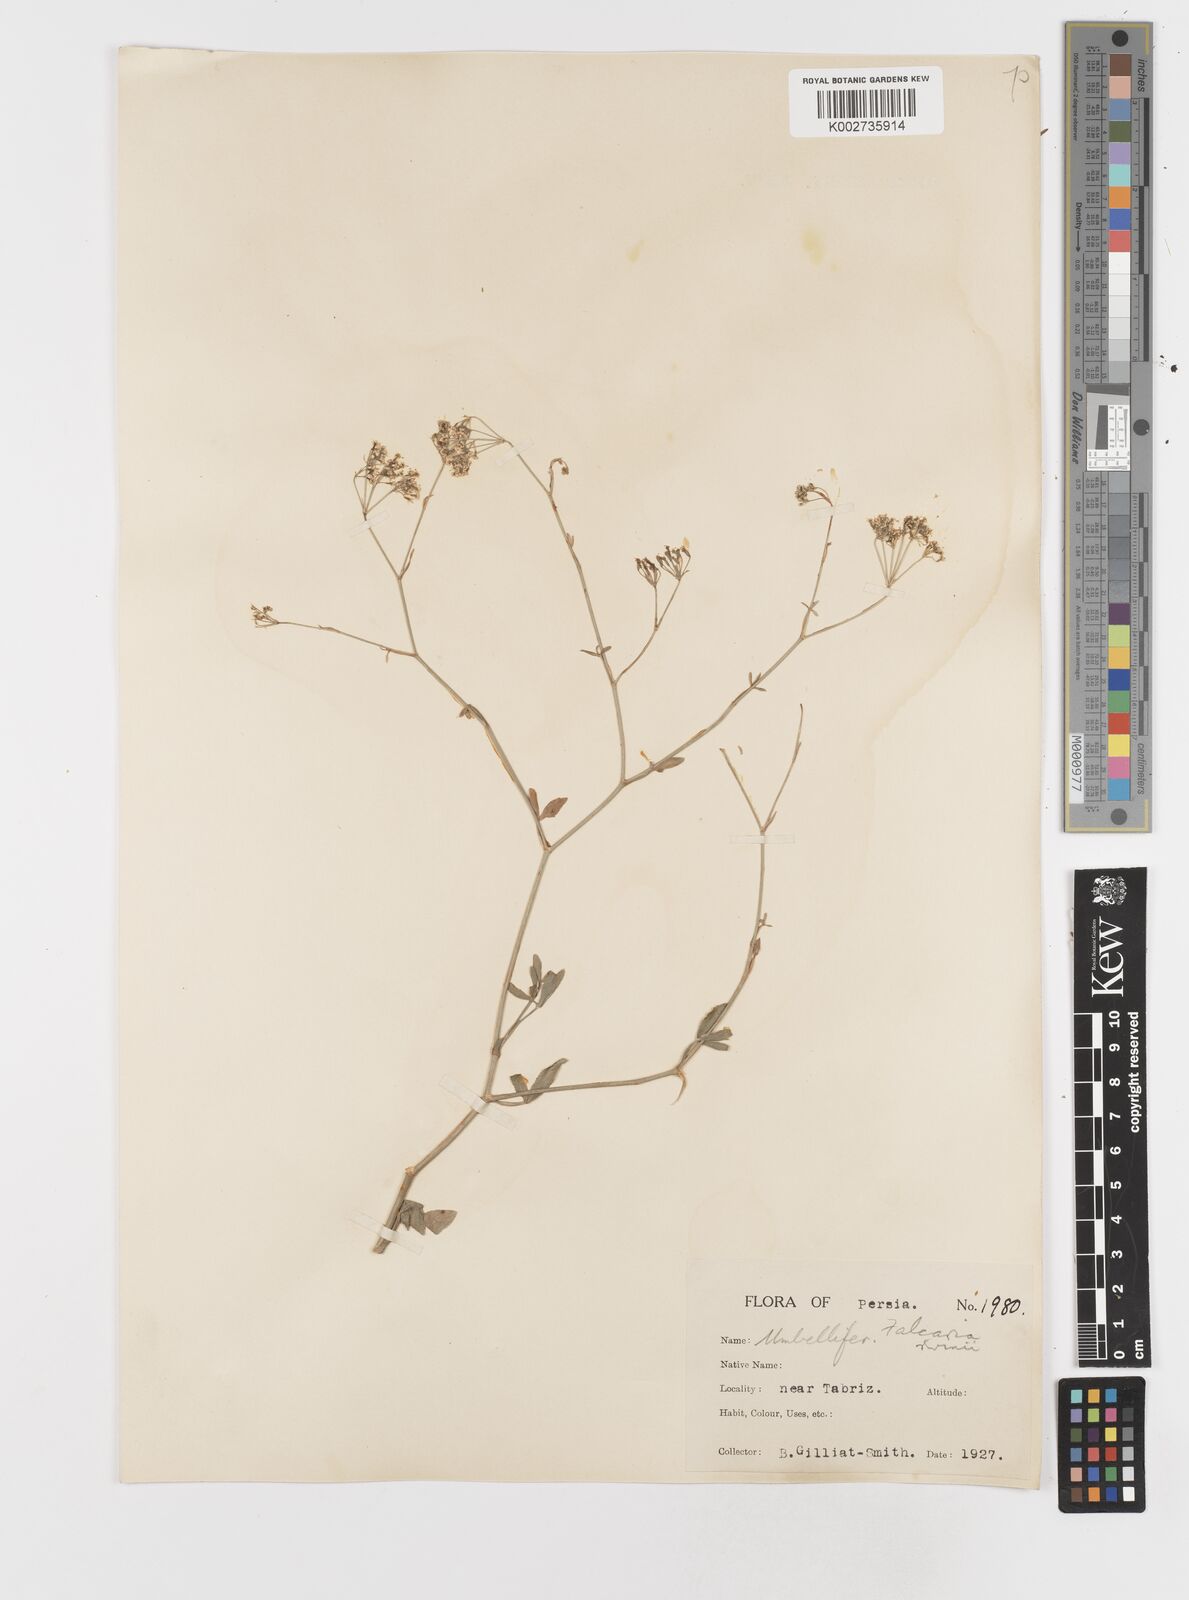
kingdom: Plantae
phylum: Tracheophyta
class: Magnoliopsida
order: Apiales
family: Apiaceae
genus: Falcaria
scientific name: Falcaria vulgaris
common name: Longleaf
